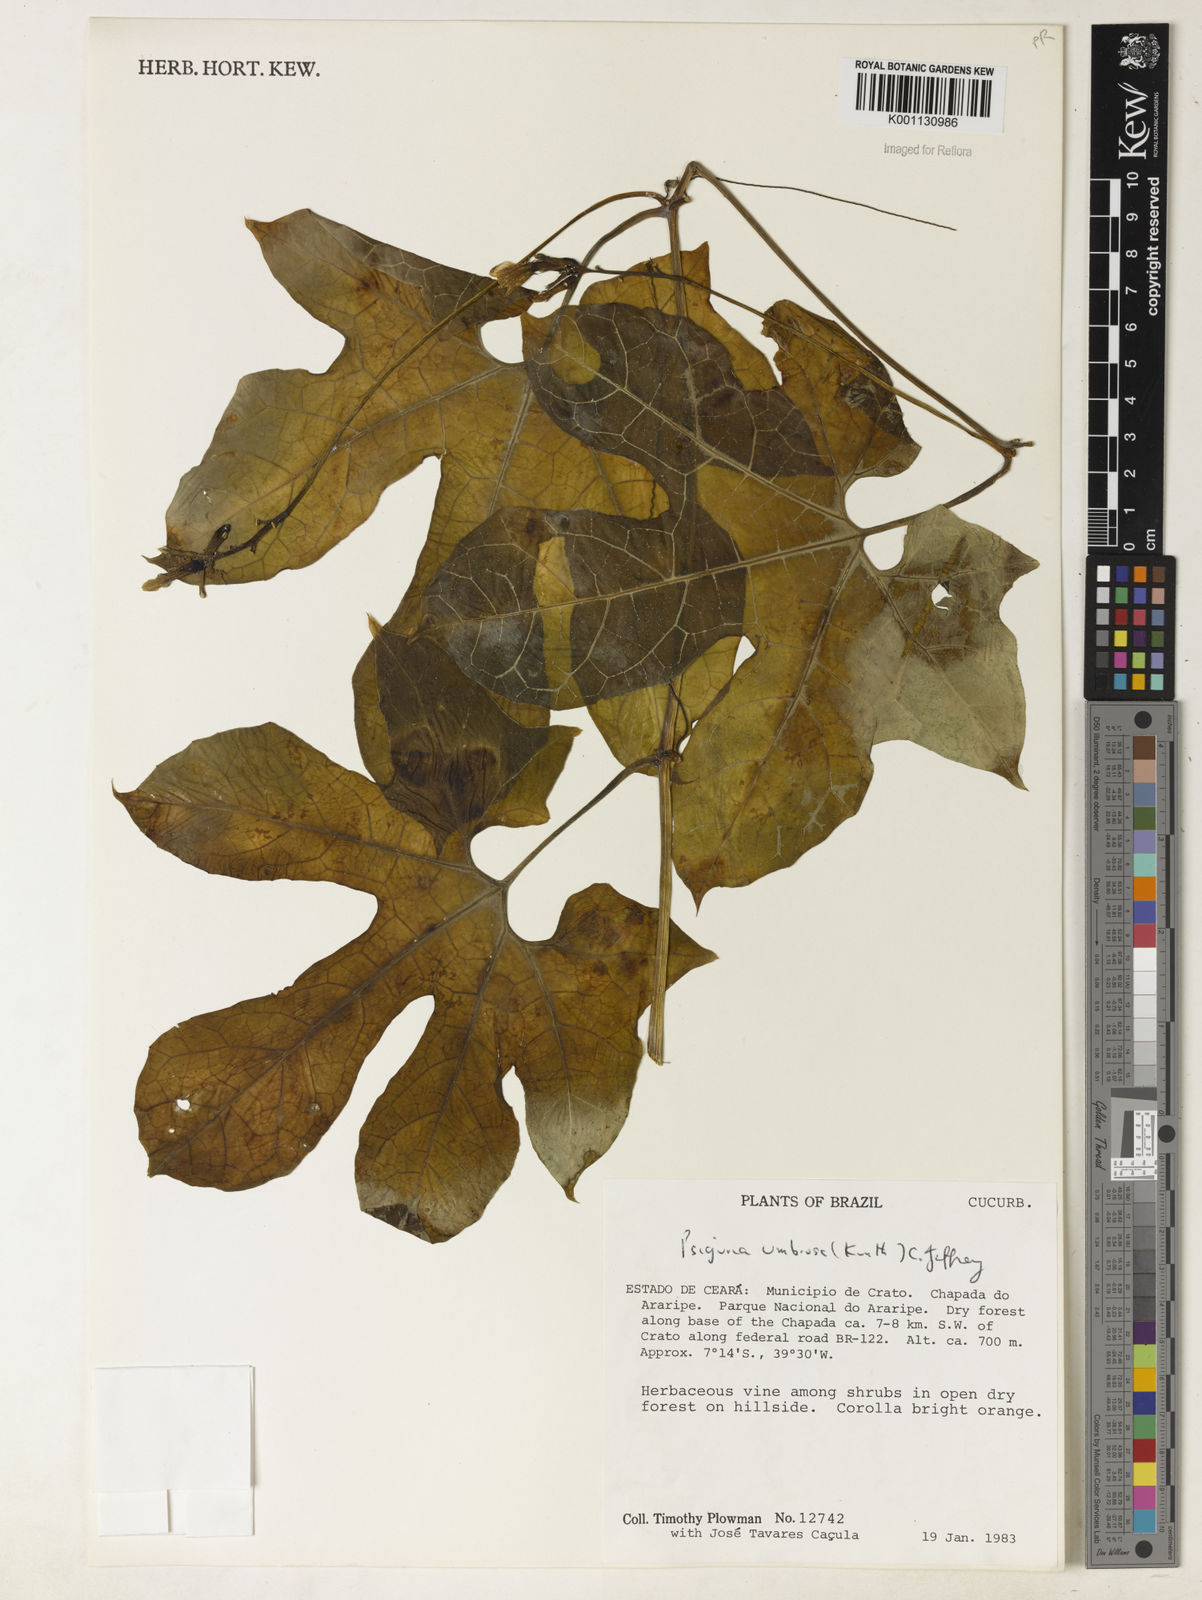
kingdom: Plantae
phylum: Tracheophyta
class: Magnoliopsida
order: Cucurbitales
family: Cucurbitaceae
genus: Psiguria
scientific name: Psiguria umbrosa
